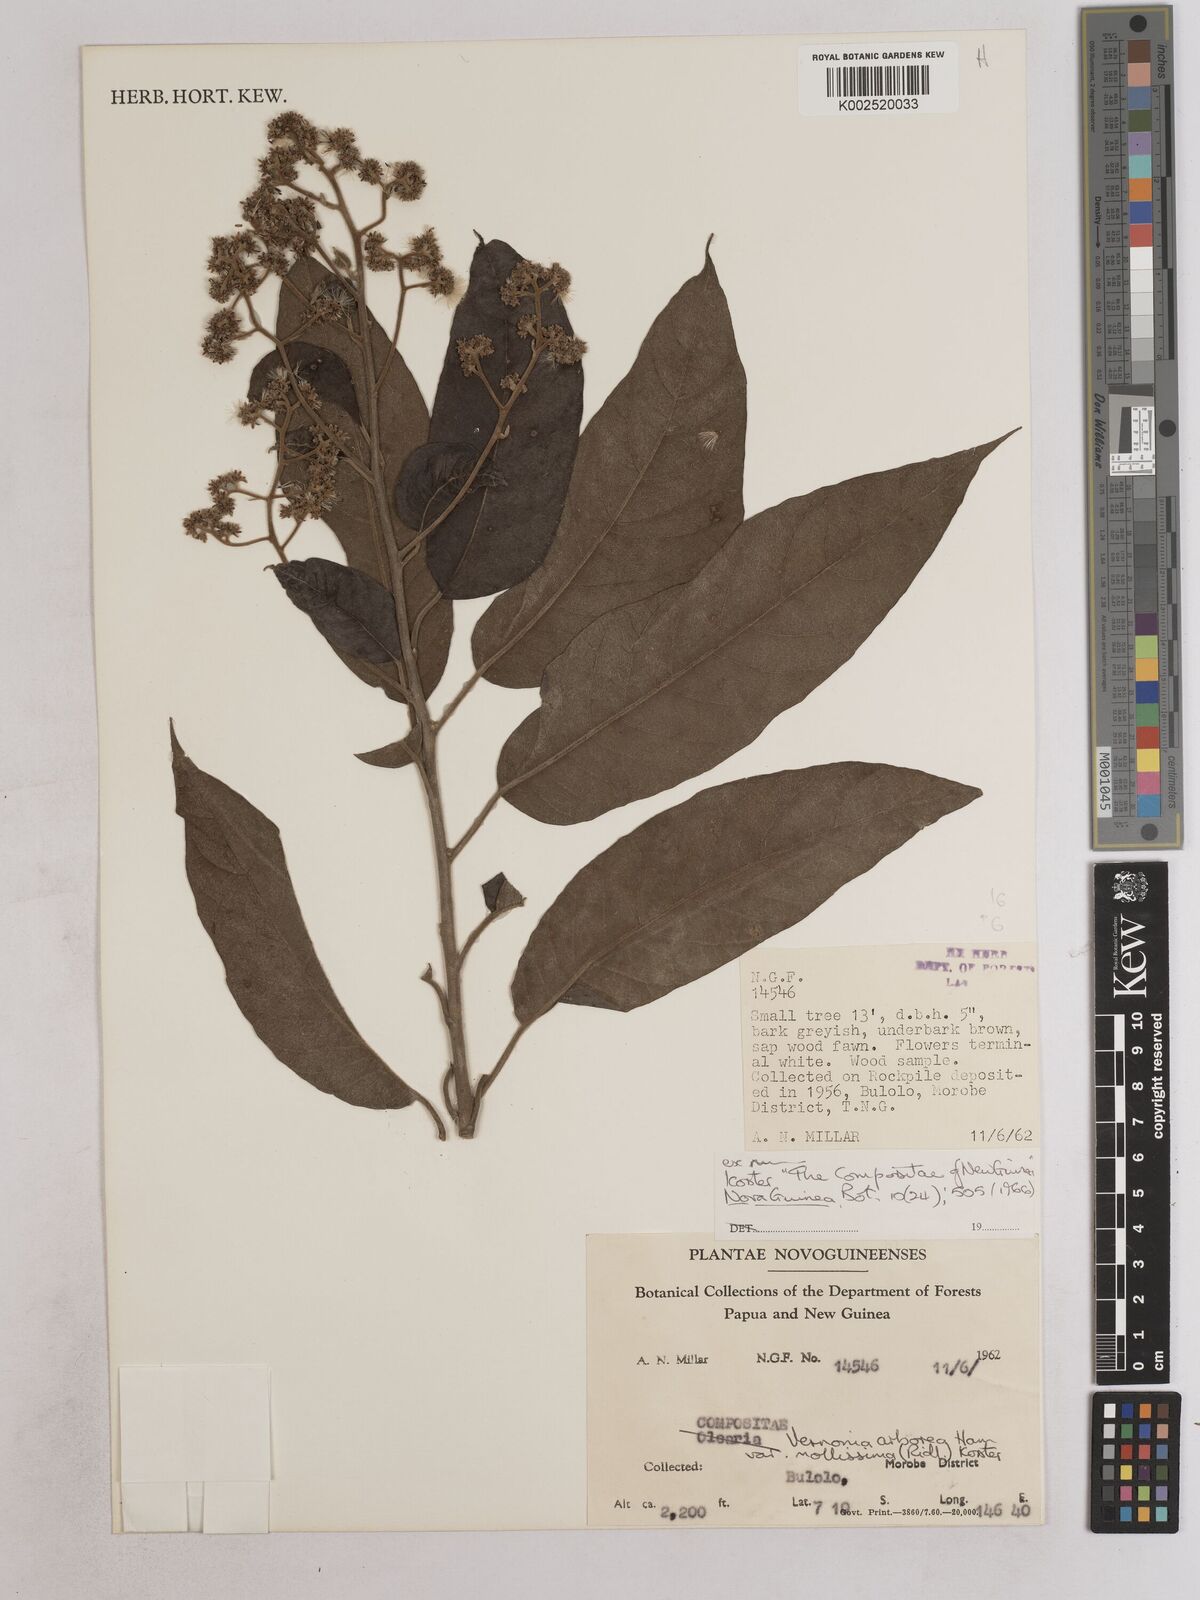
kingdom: Plantae
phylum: Tracheophyta
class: Magnoliopsida
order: Asterales
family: Asteraceae
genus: Strobocalyx
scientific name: Strobocalyx arborea
